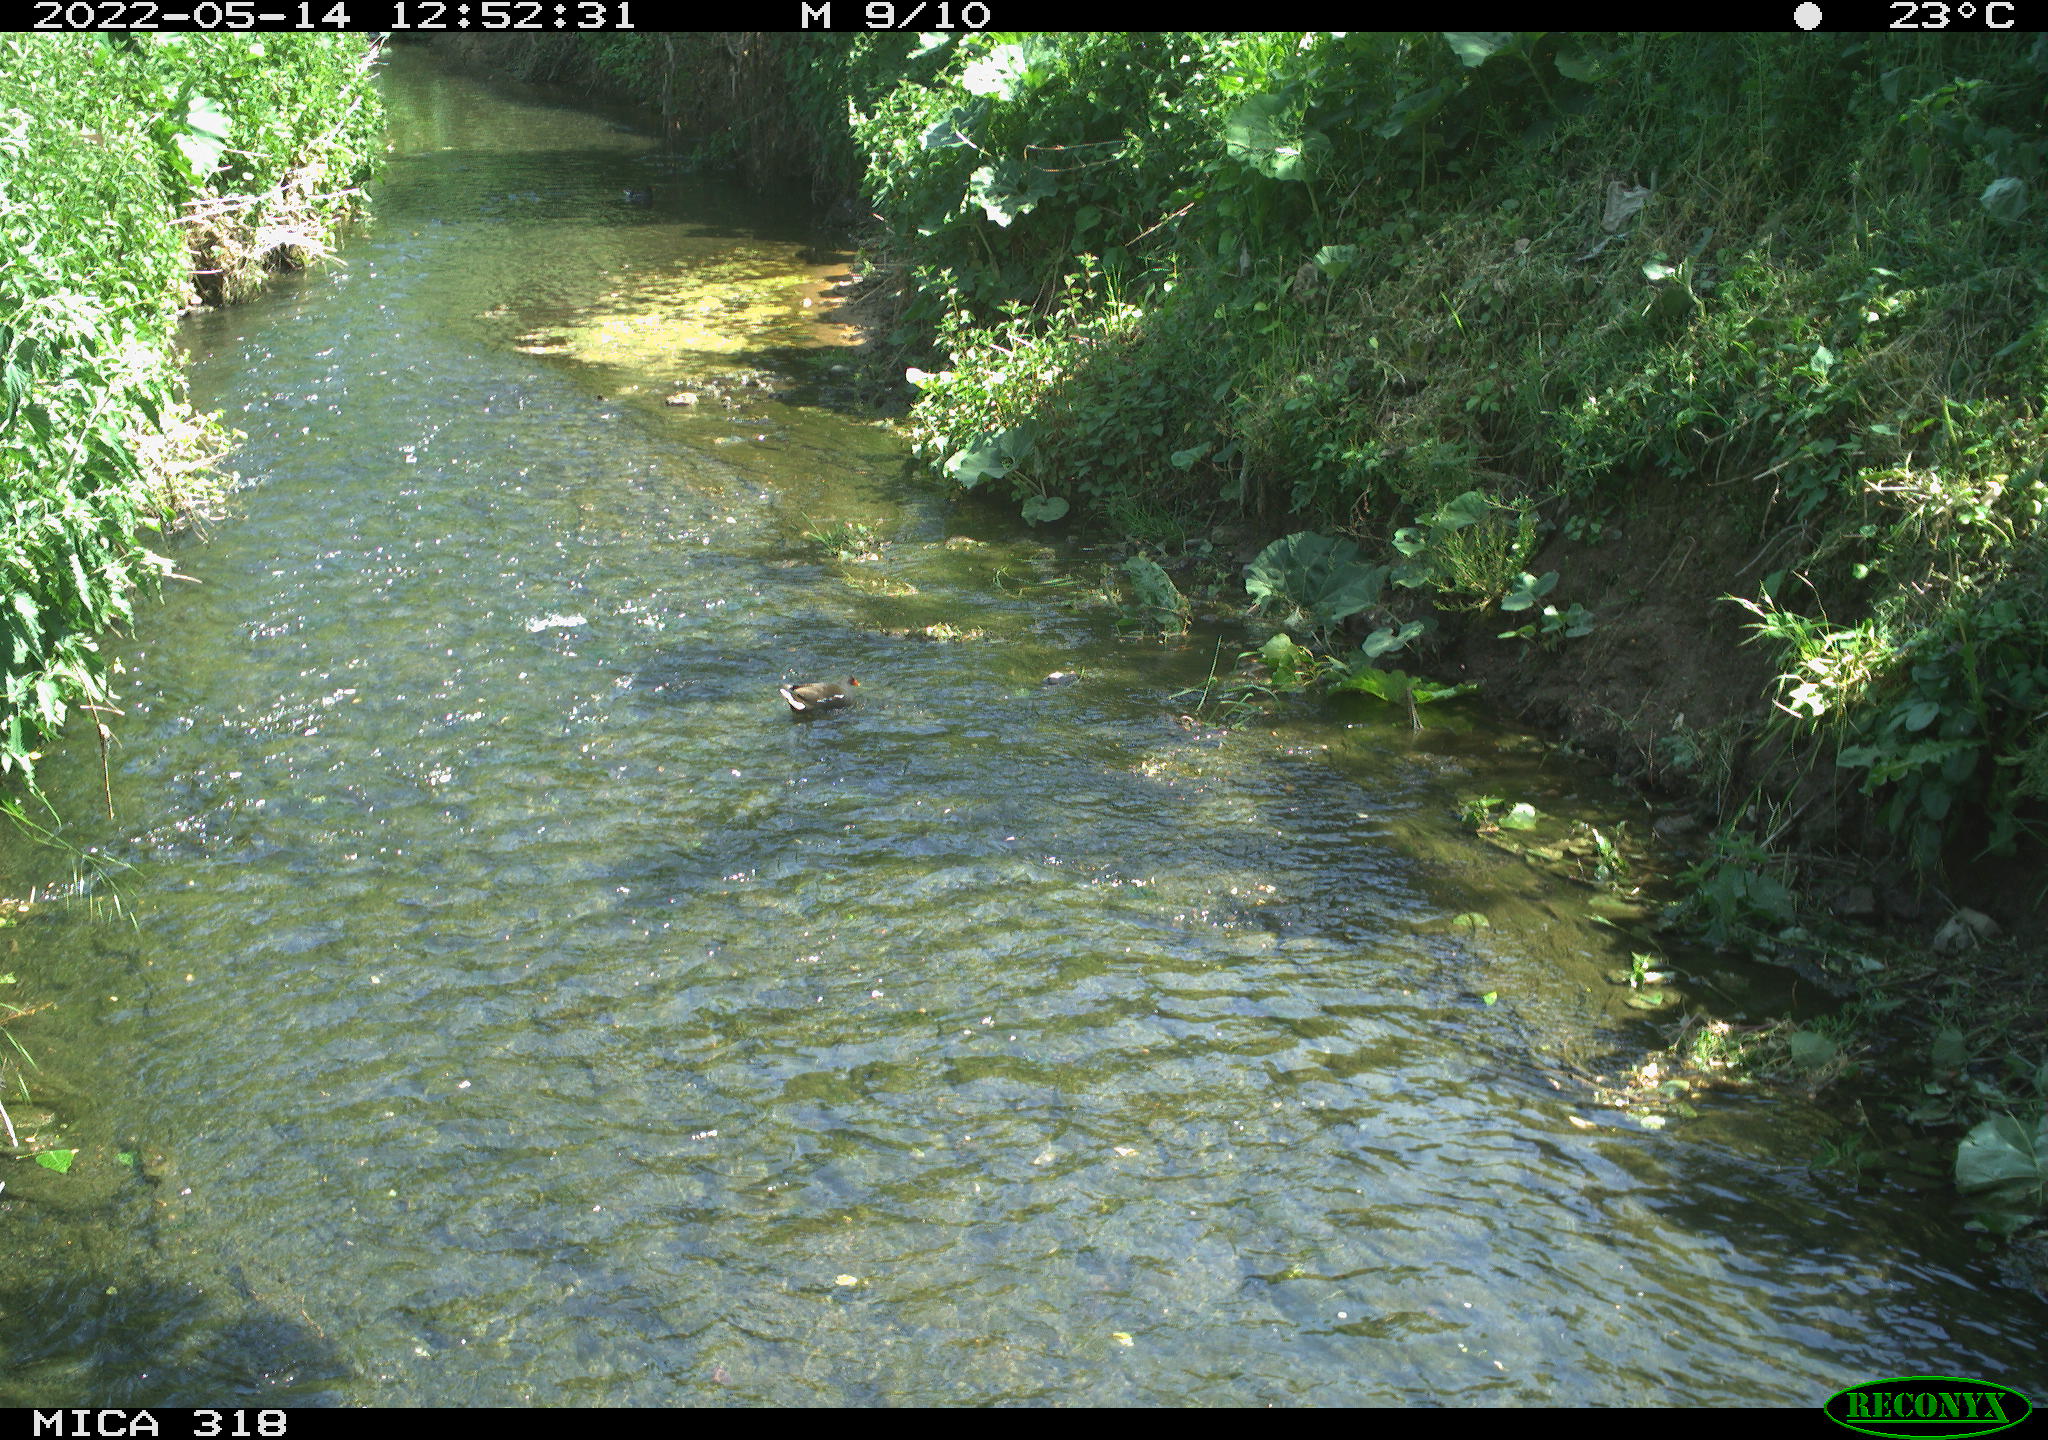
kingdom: Animalia
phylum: Chordata
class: Aves
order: Gruiformes
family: Rallidae
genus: Gallinula
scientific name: Gallinula chloropus
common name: Common moorhen
